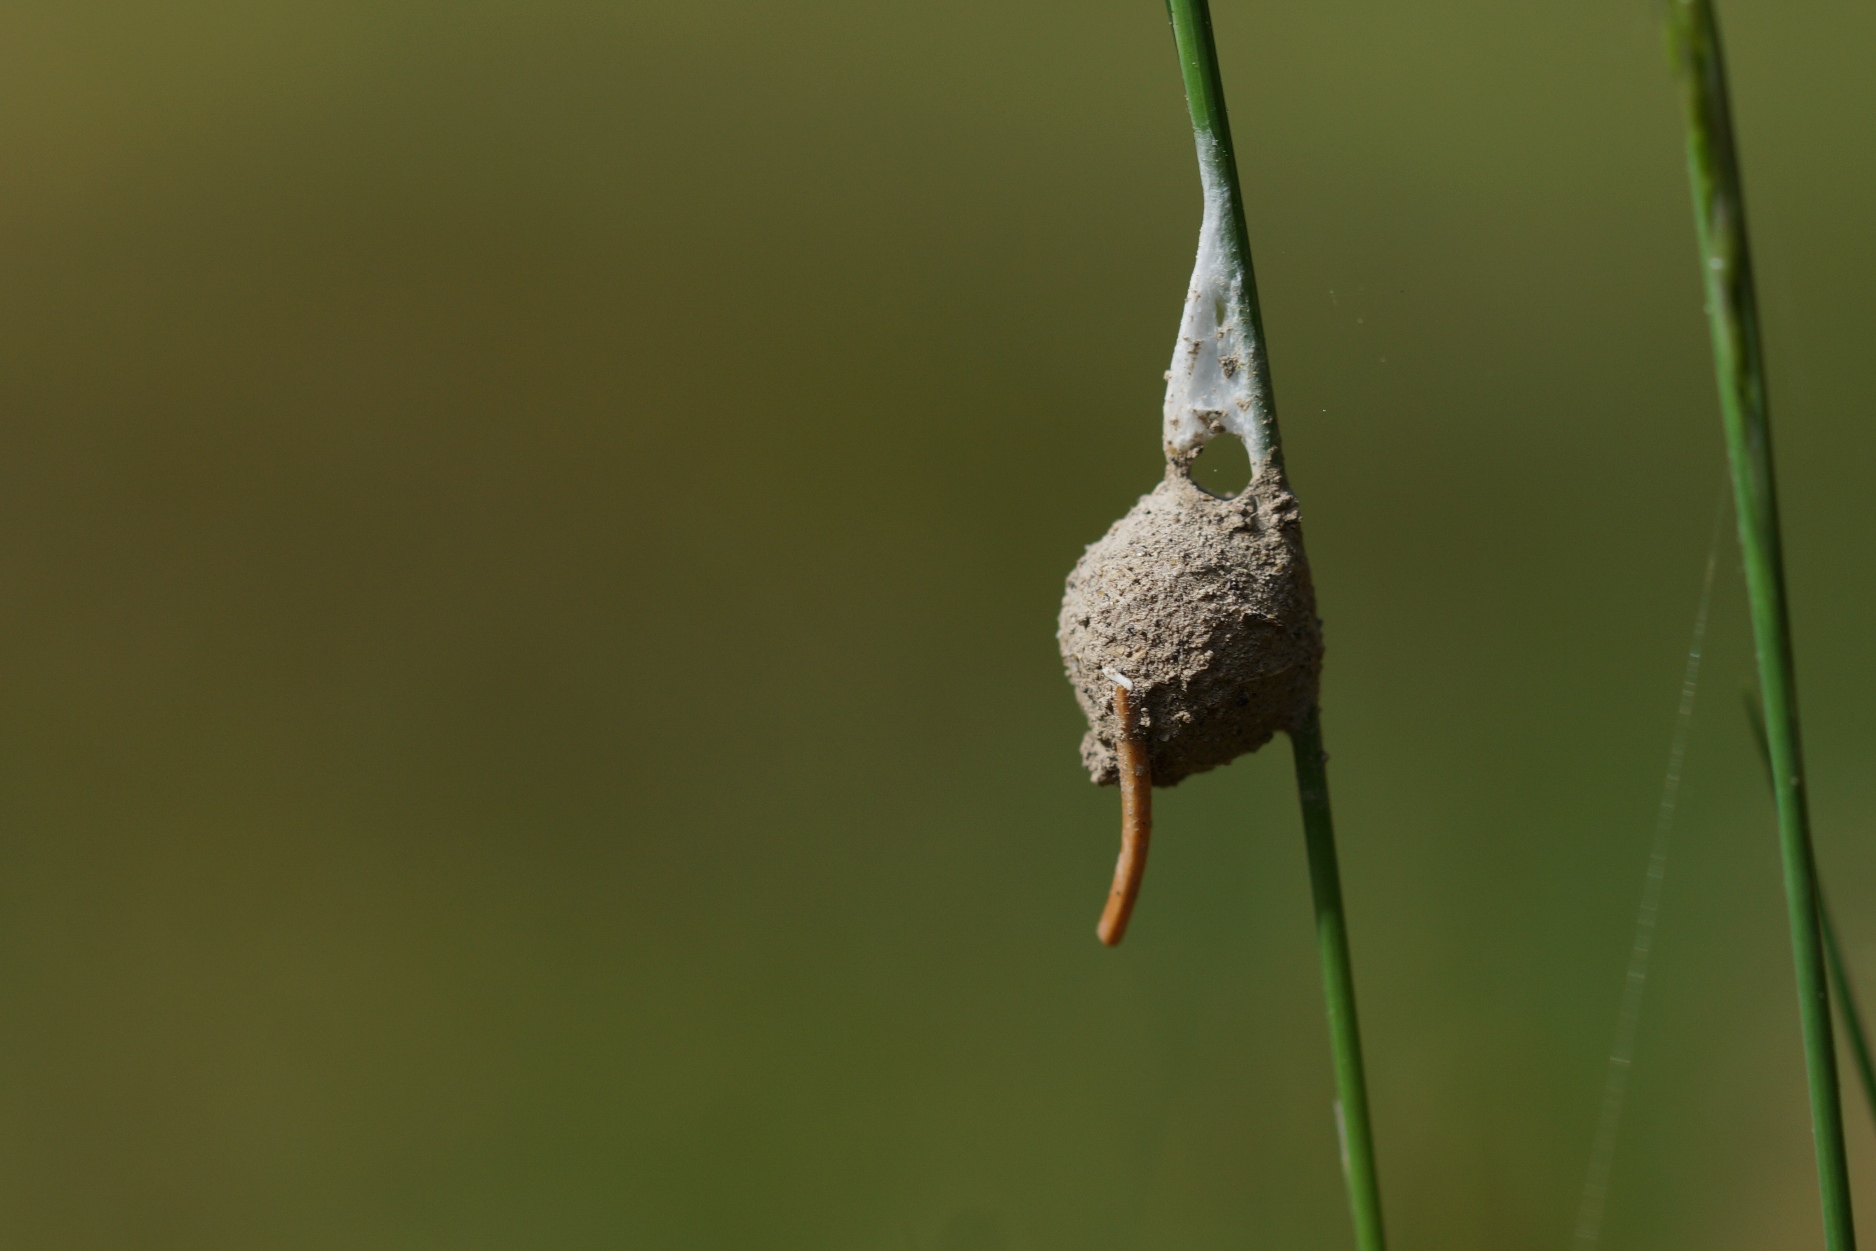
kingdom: Animalia
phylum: Arthropoda
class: Arachnida
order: Araneae
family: Liocranidae
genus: Agroeca
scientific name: Agroeca brunnea
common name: Felampespinder
